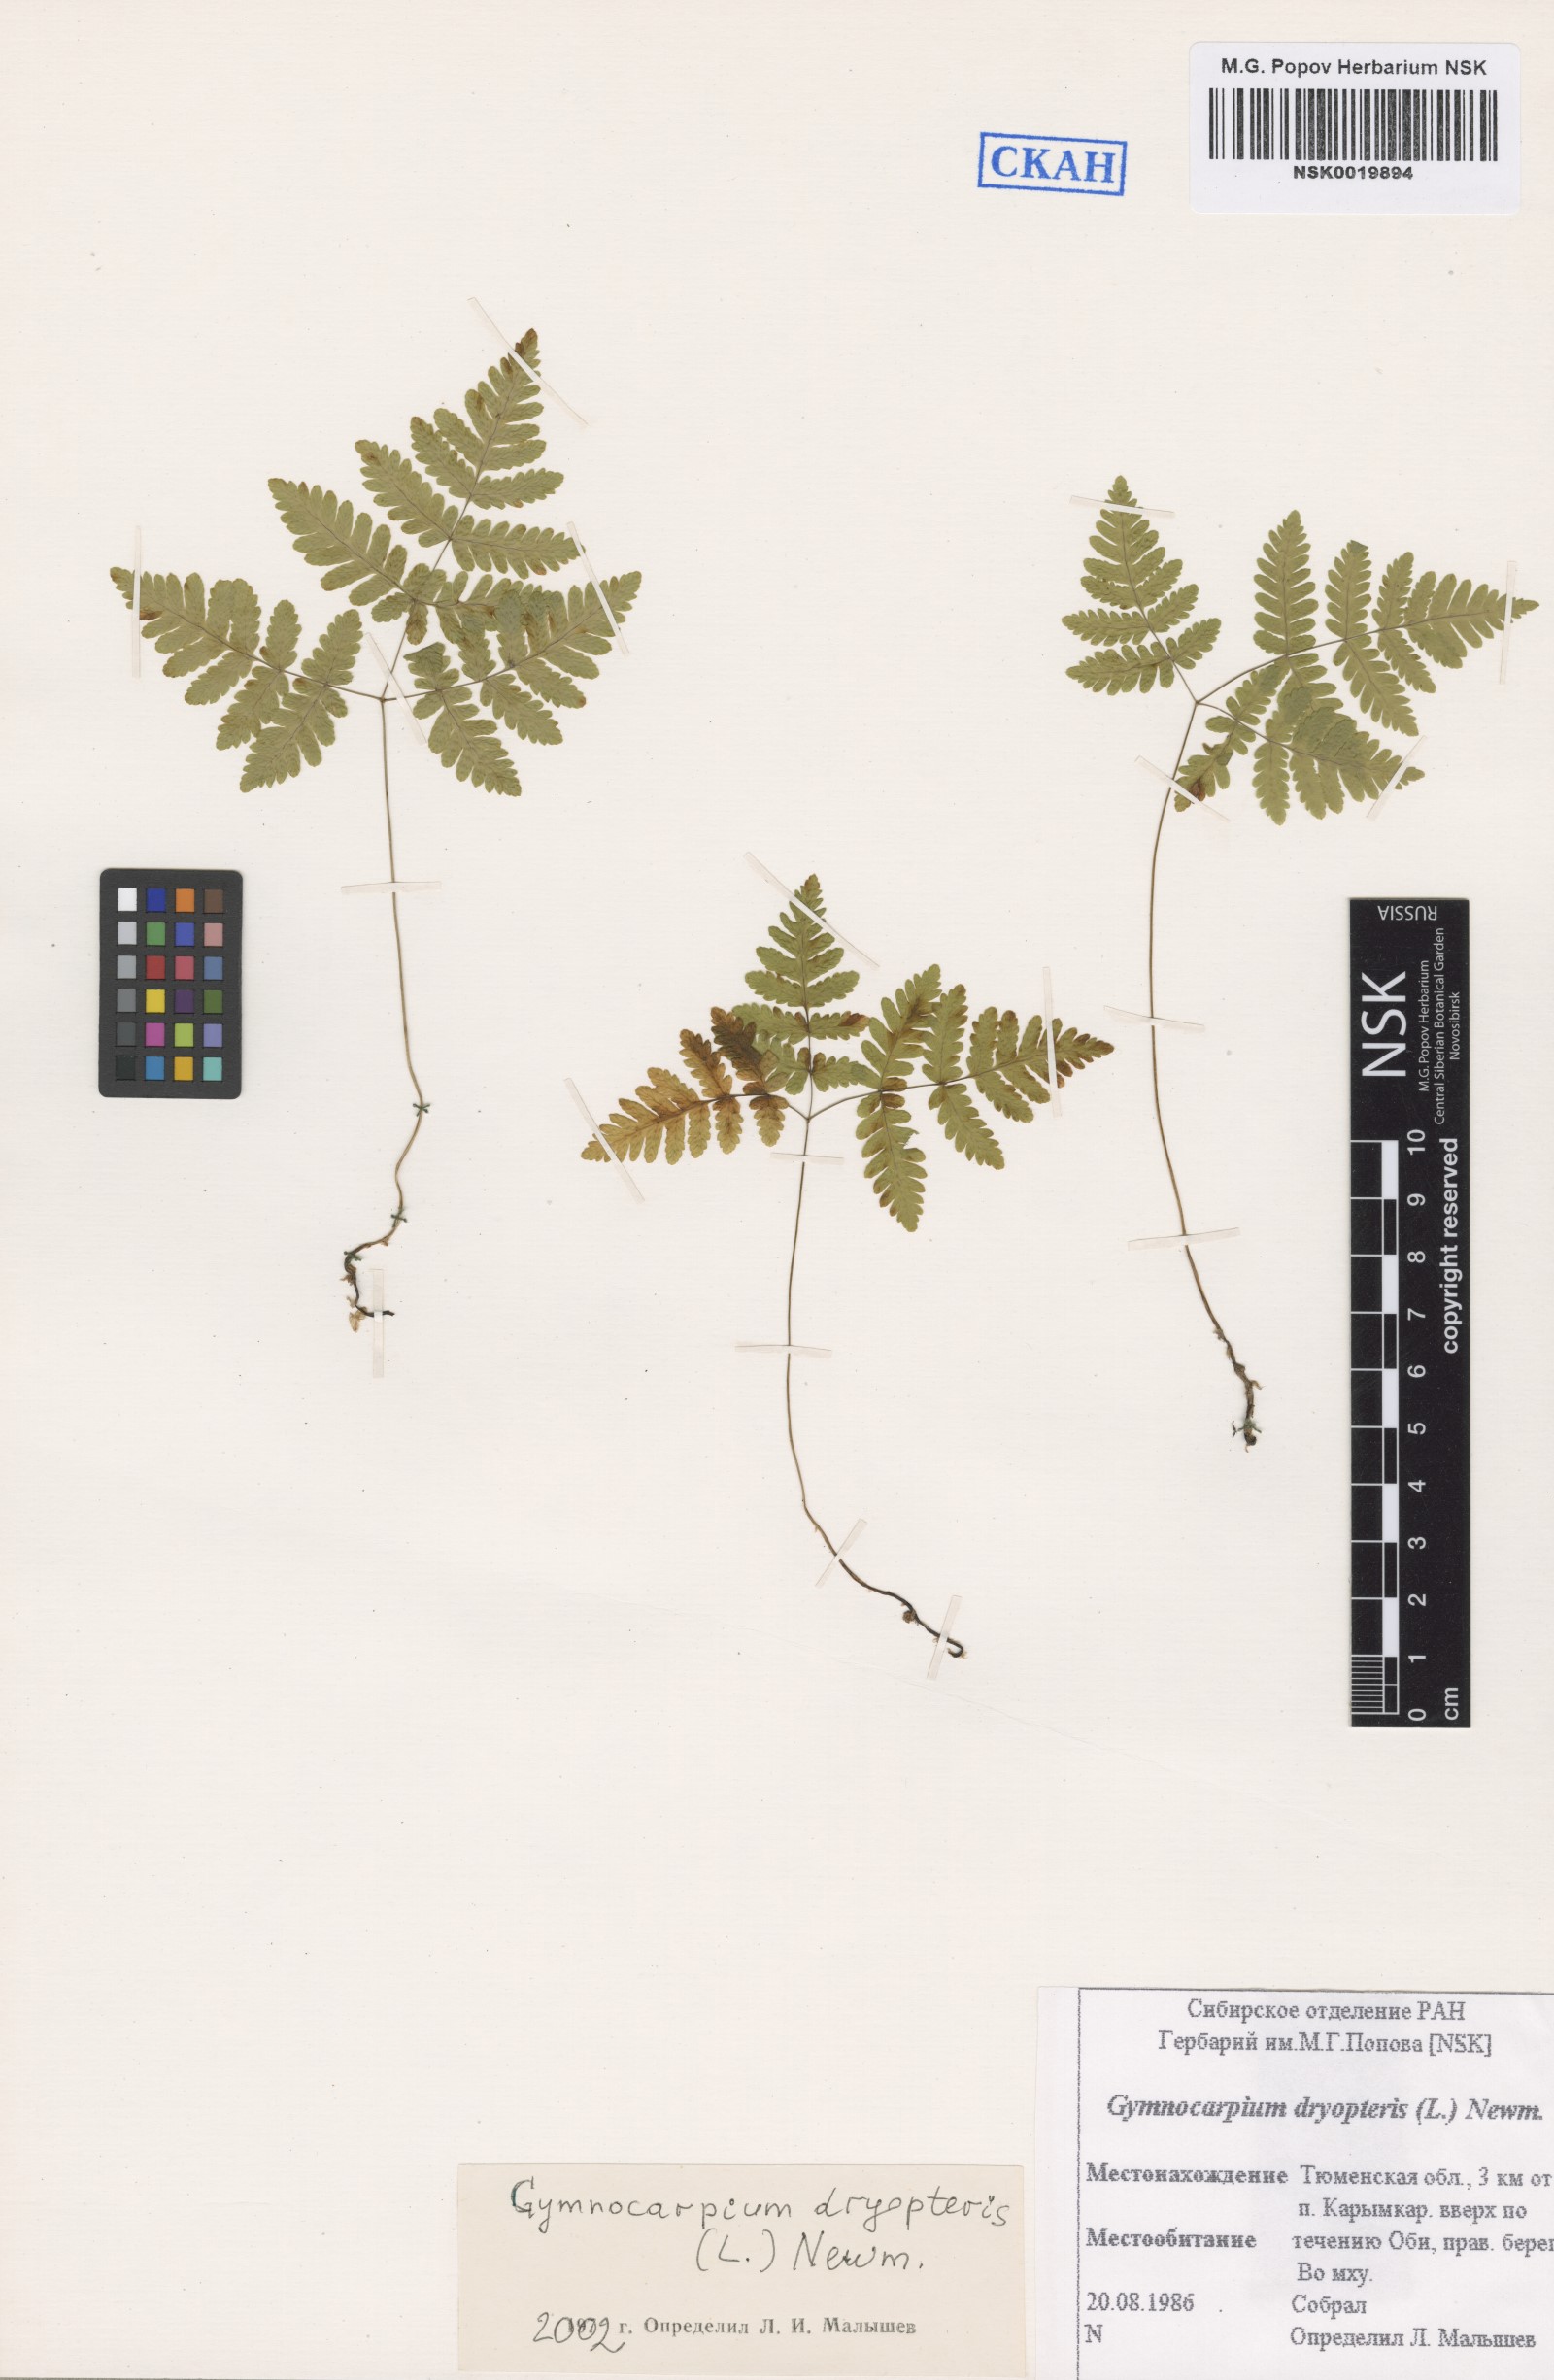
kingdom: Plantae
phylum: Tracheophyta
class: Polypodiopsida
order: Polypodiales
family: Cystopteridaceae
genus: Gymnocarpium
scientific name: Gymnocarpium dryopteris
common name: Oak fern
